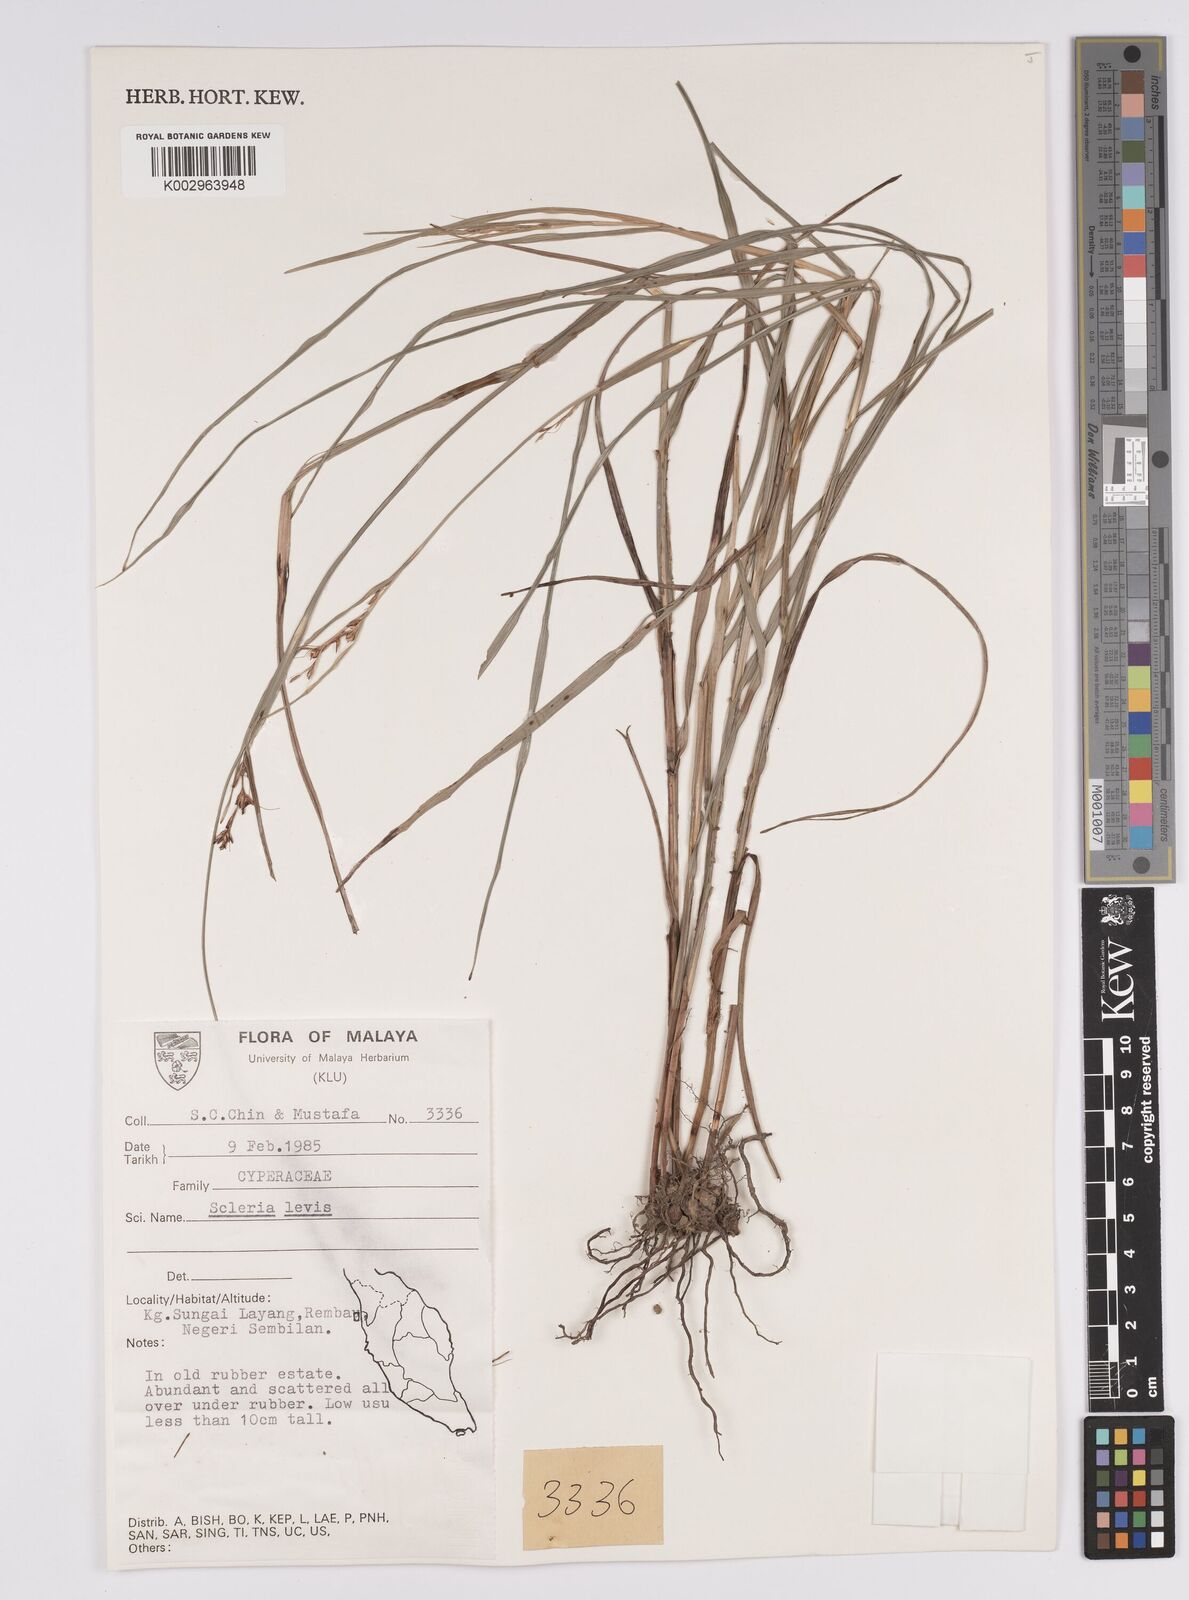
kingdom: Plantae
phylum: Tracheophyta
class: Liliopsida
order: Poales
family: Cyperaceae
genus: Scleria
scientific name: Scleria levis
